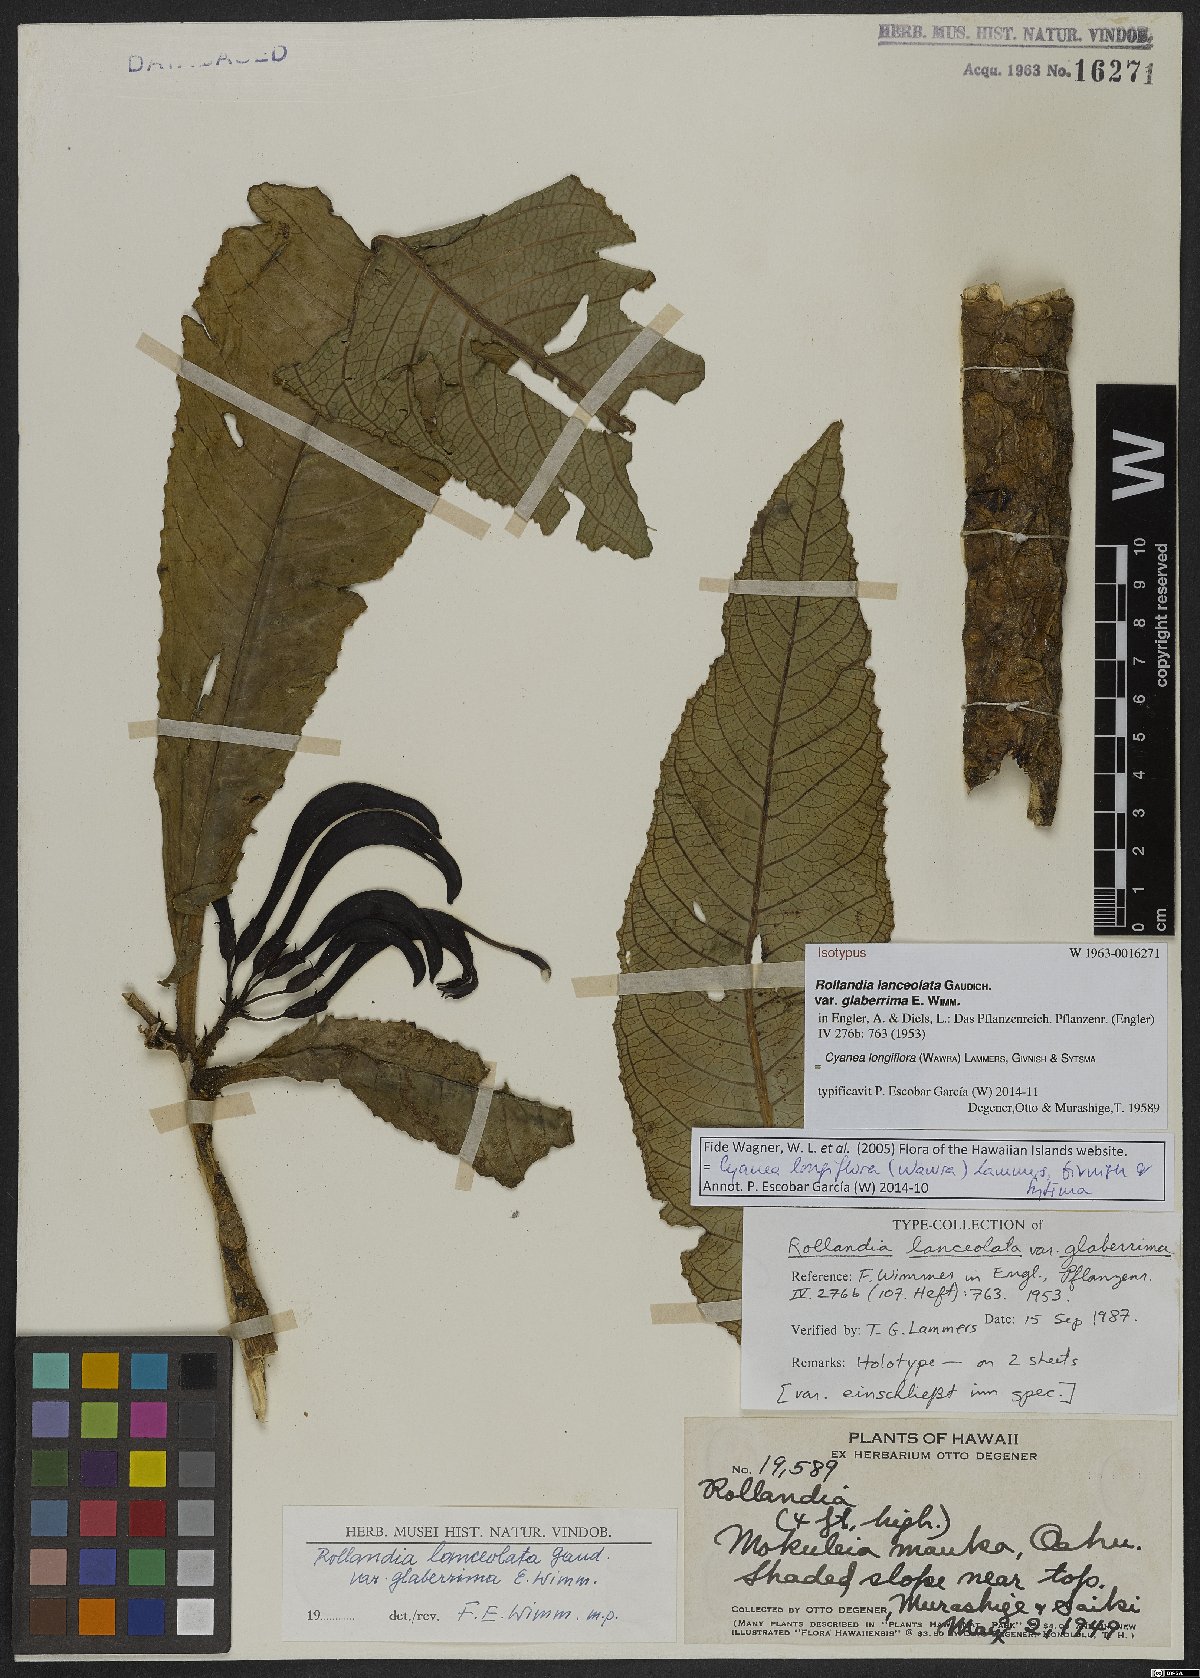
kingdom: Plantae
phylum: Tracheophyta
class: Magnoliopsida
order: Asterales
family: Campanulaceae
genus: Cyanea
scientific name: Cyanea longiflora
